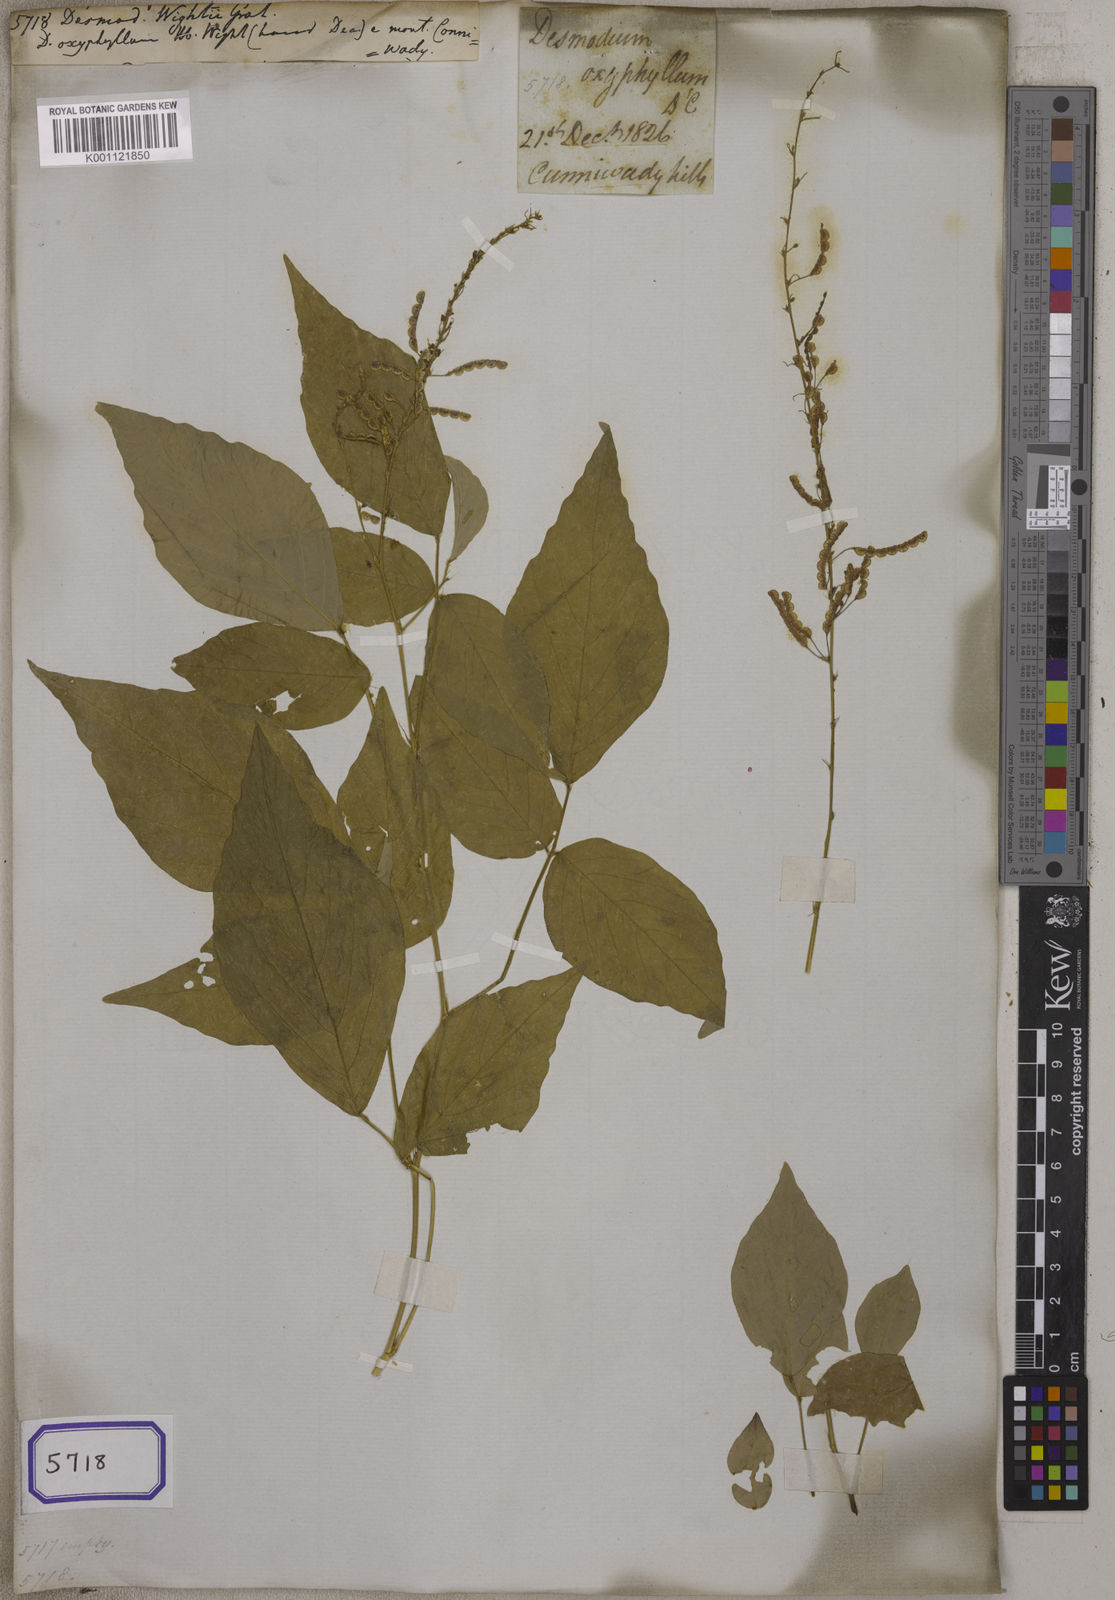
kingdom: Plantae
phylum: Tracheophyta
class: Magnoliopsida
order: Fabales
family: Fabaceae
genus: Desmodium
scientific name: Desmodium
